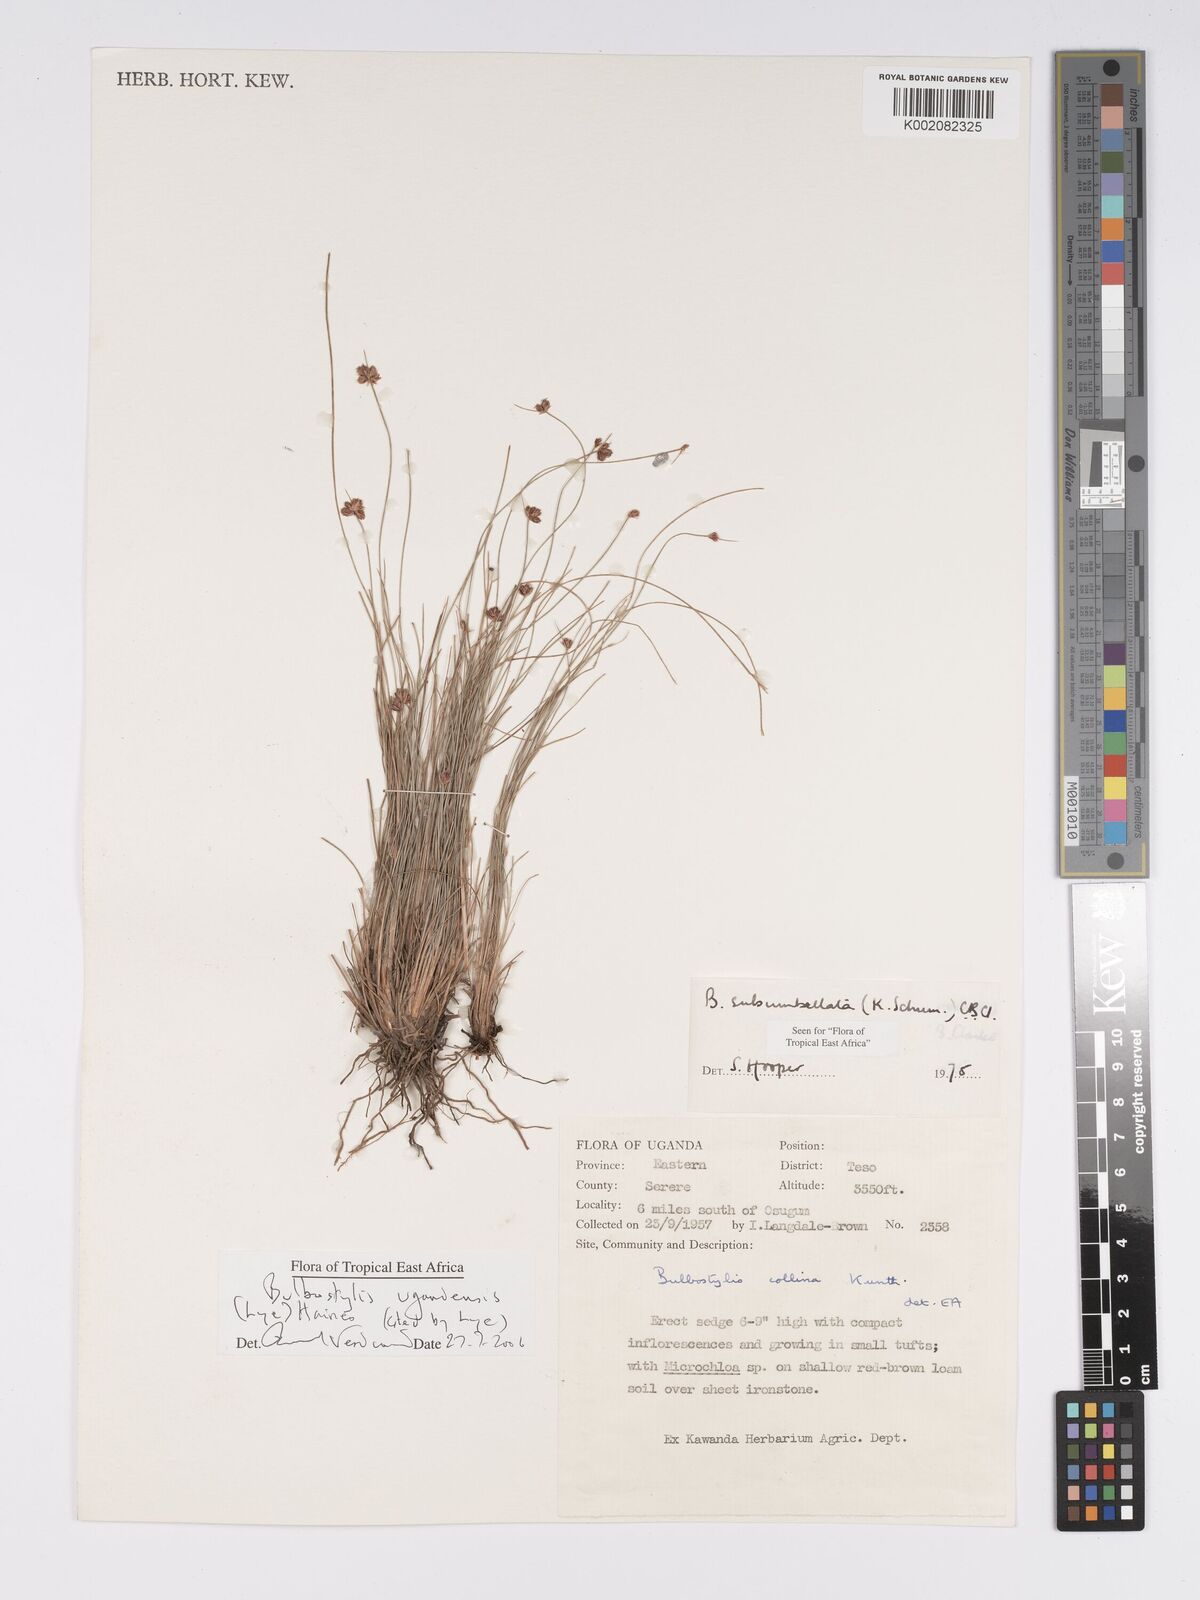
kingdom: Plantae
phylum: Tracheophyta
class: Liliopsida
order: Poales
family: Cyperaceae
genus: Bulbostylis
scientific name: Bulbostylis ugandensis
